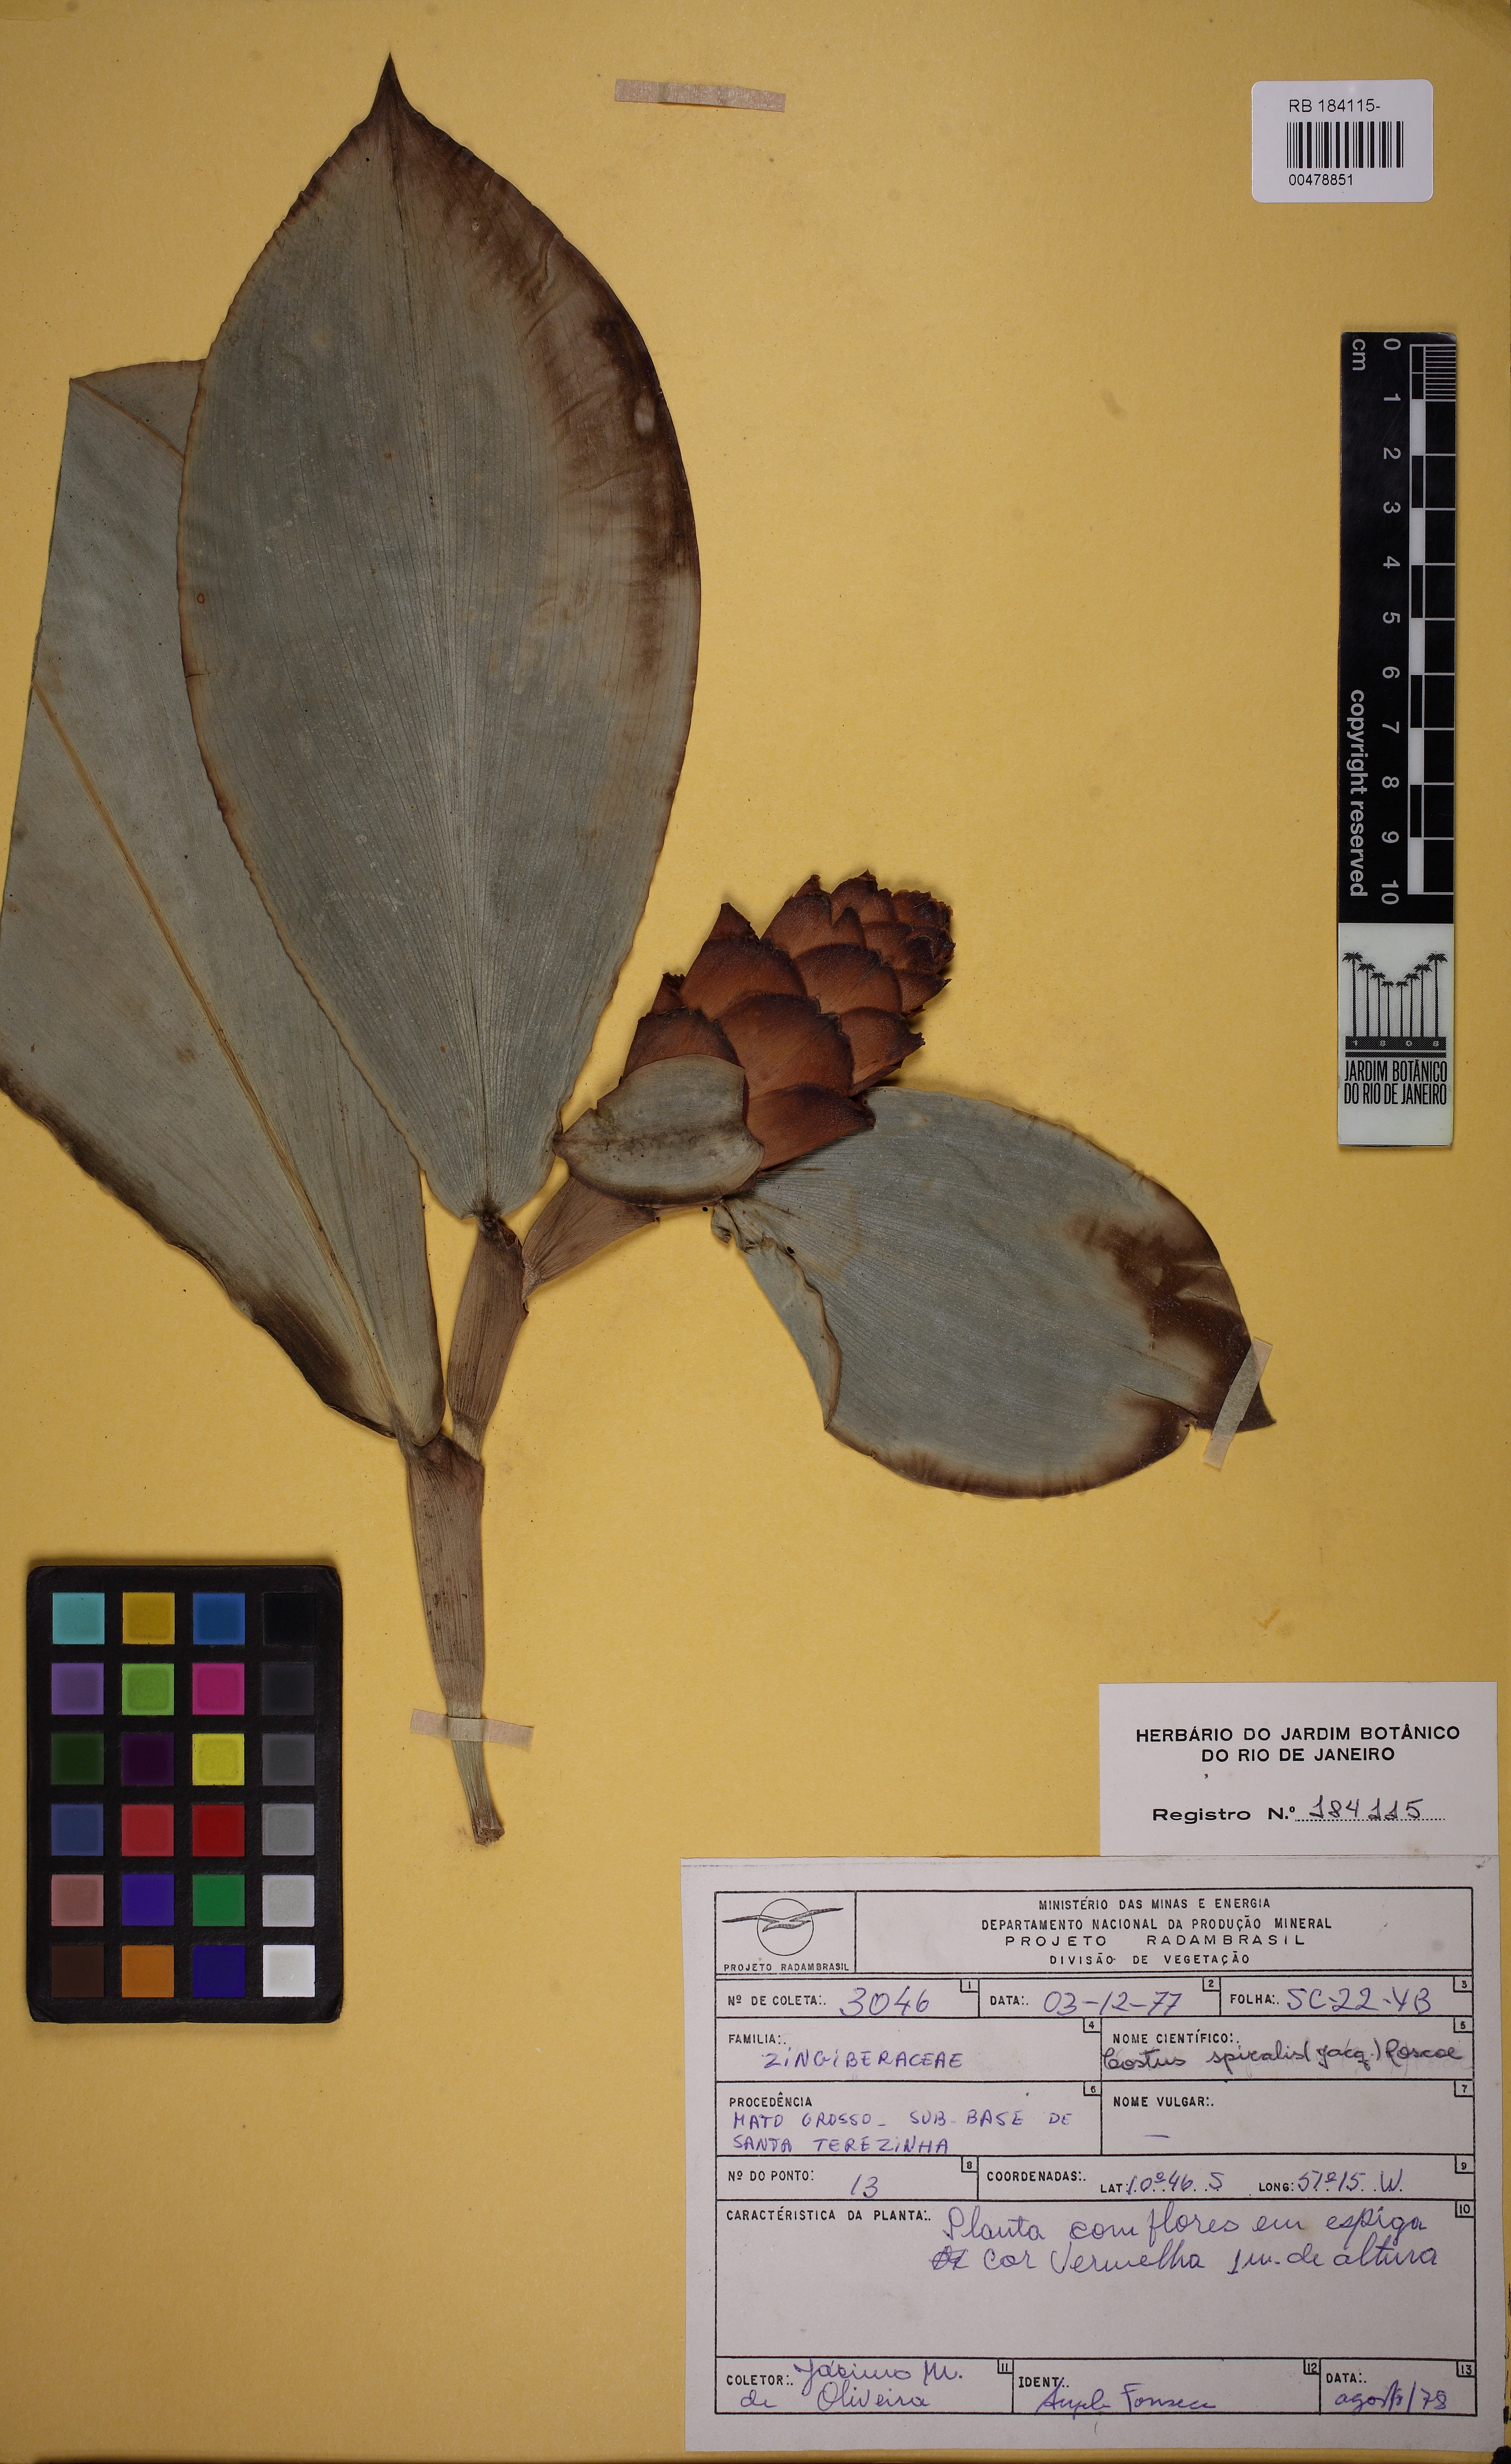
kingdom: Plantae
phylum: Tracheophyta
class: Liliopsida
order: Zingiberales
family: Costaceae
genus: Costus
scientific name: Costus spiralis
